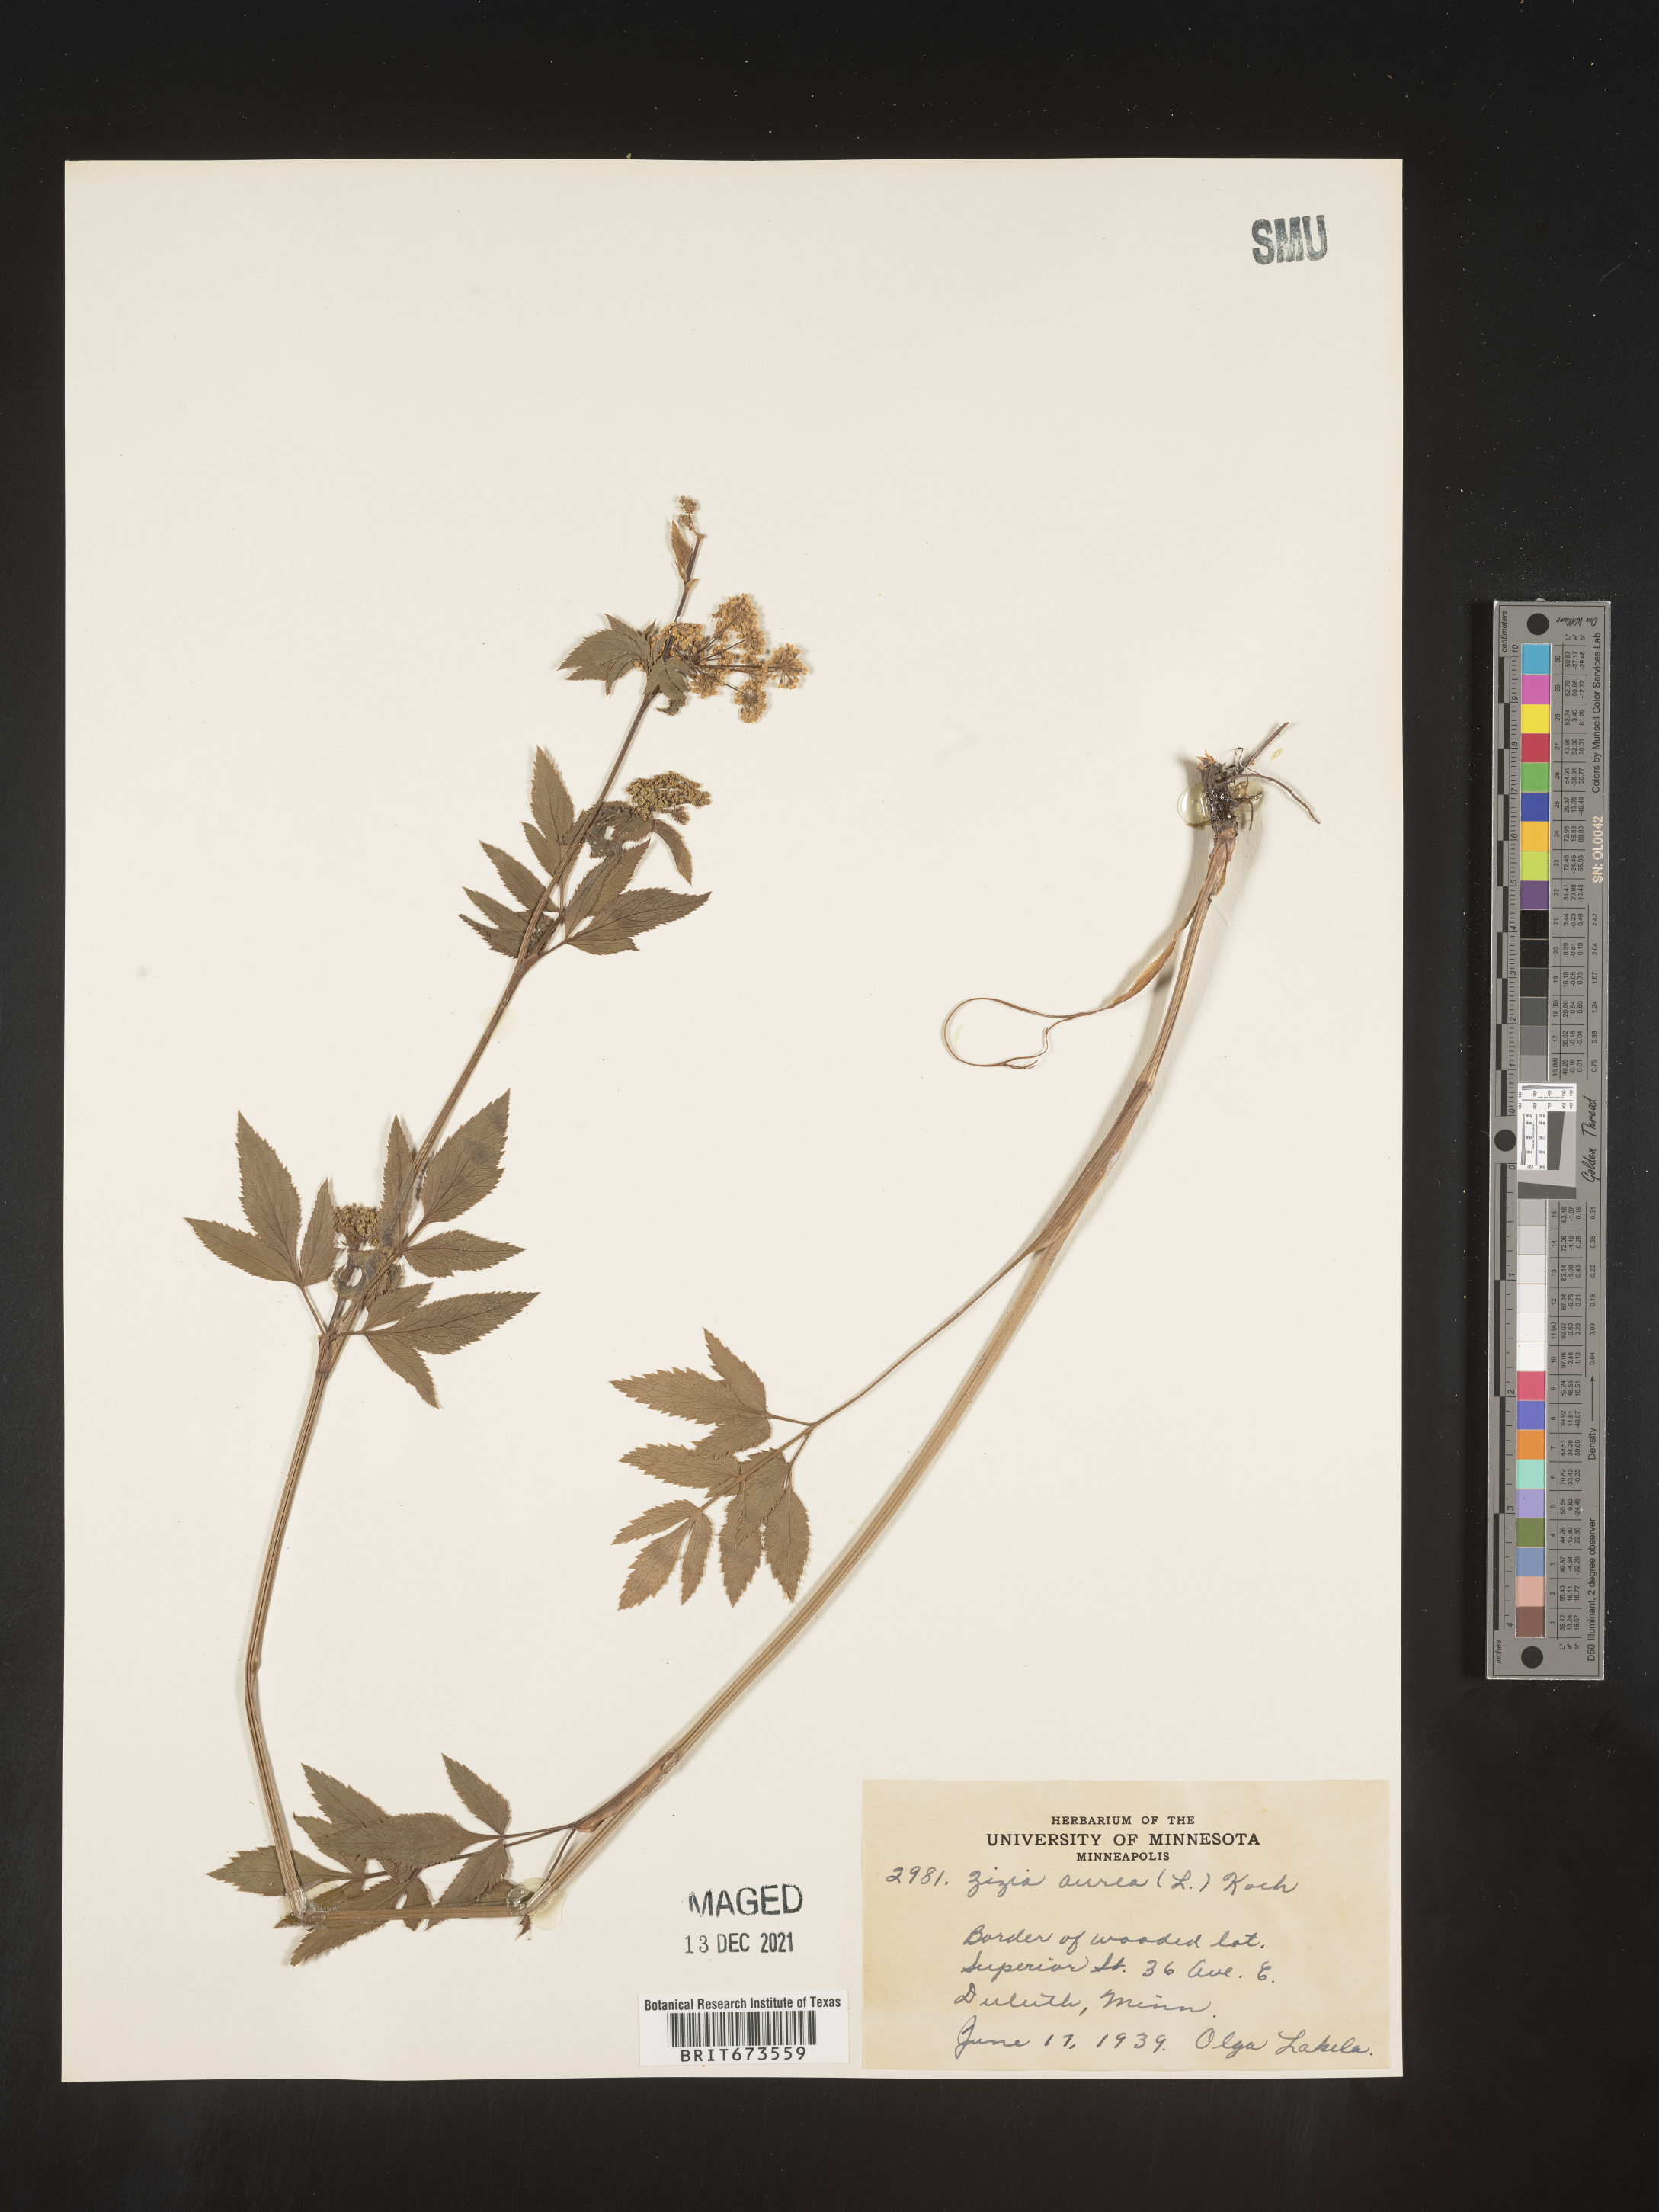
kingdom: Plantae
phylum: Tracheophyta
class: Magnoliopsida
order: Apiales
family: Apiaceae
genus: Zizia
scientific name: Zizia aurea
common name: Golden alexanders
